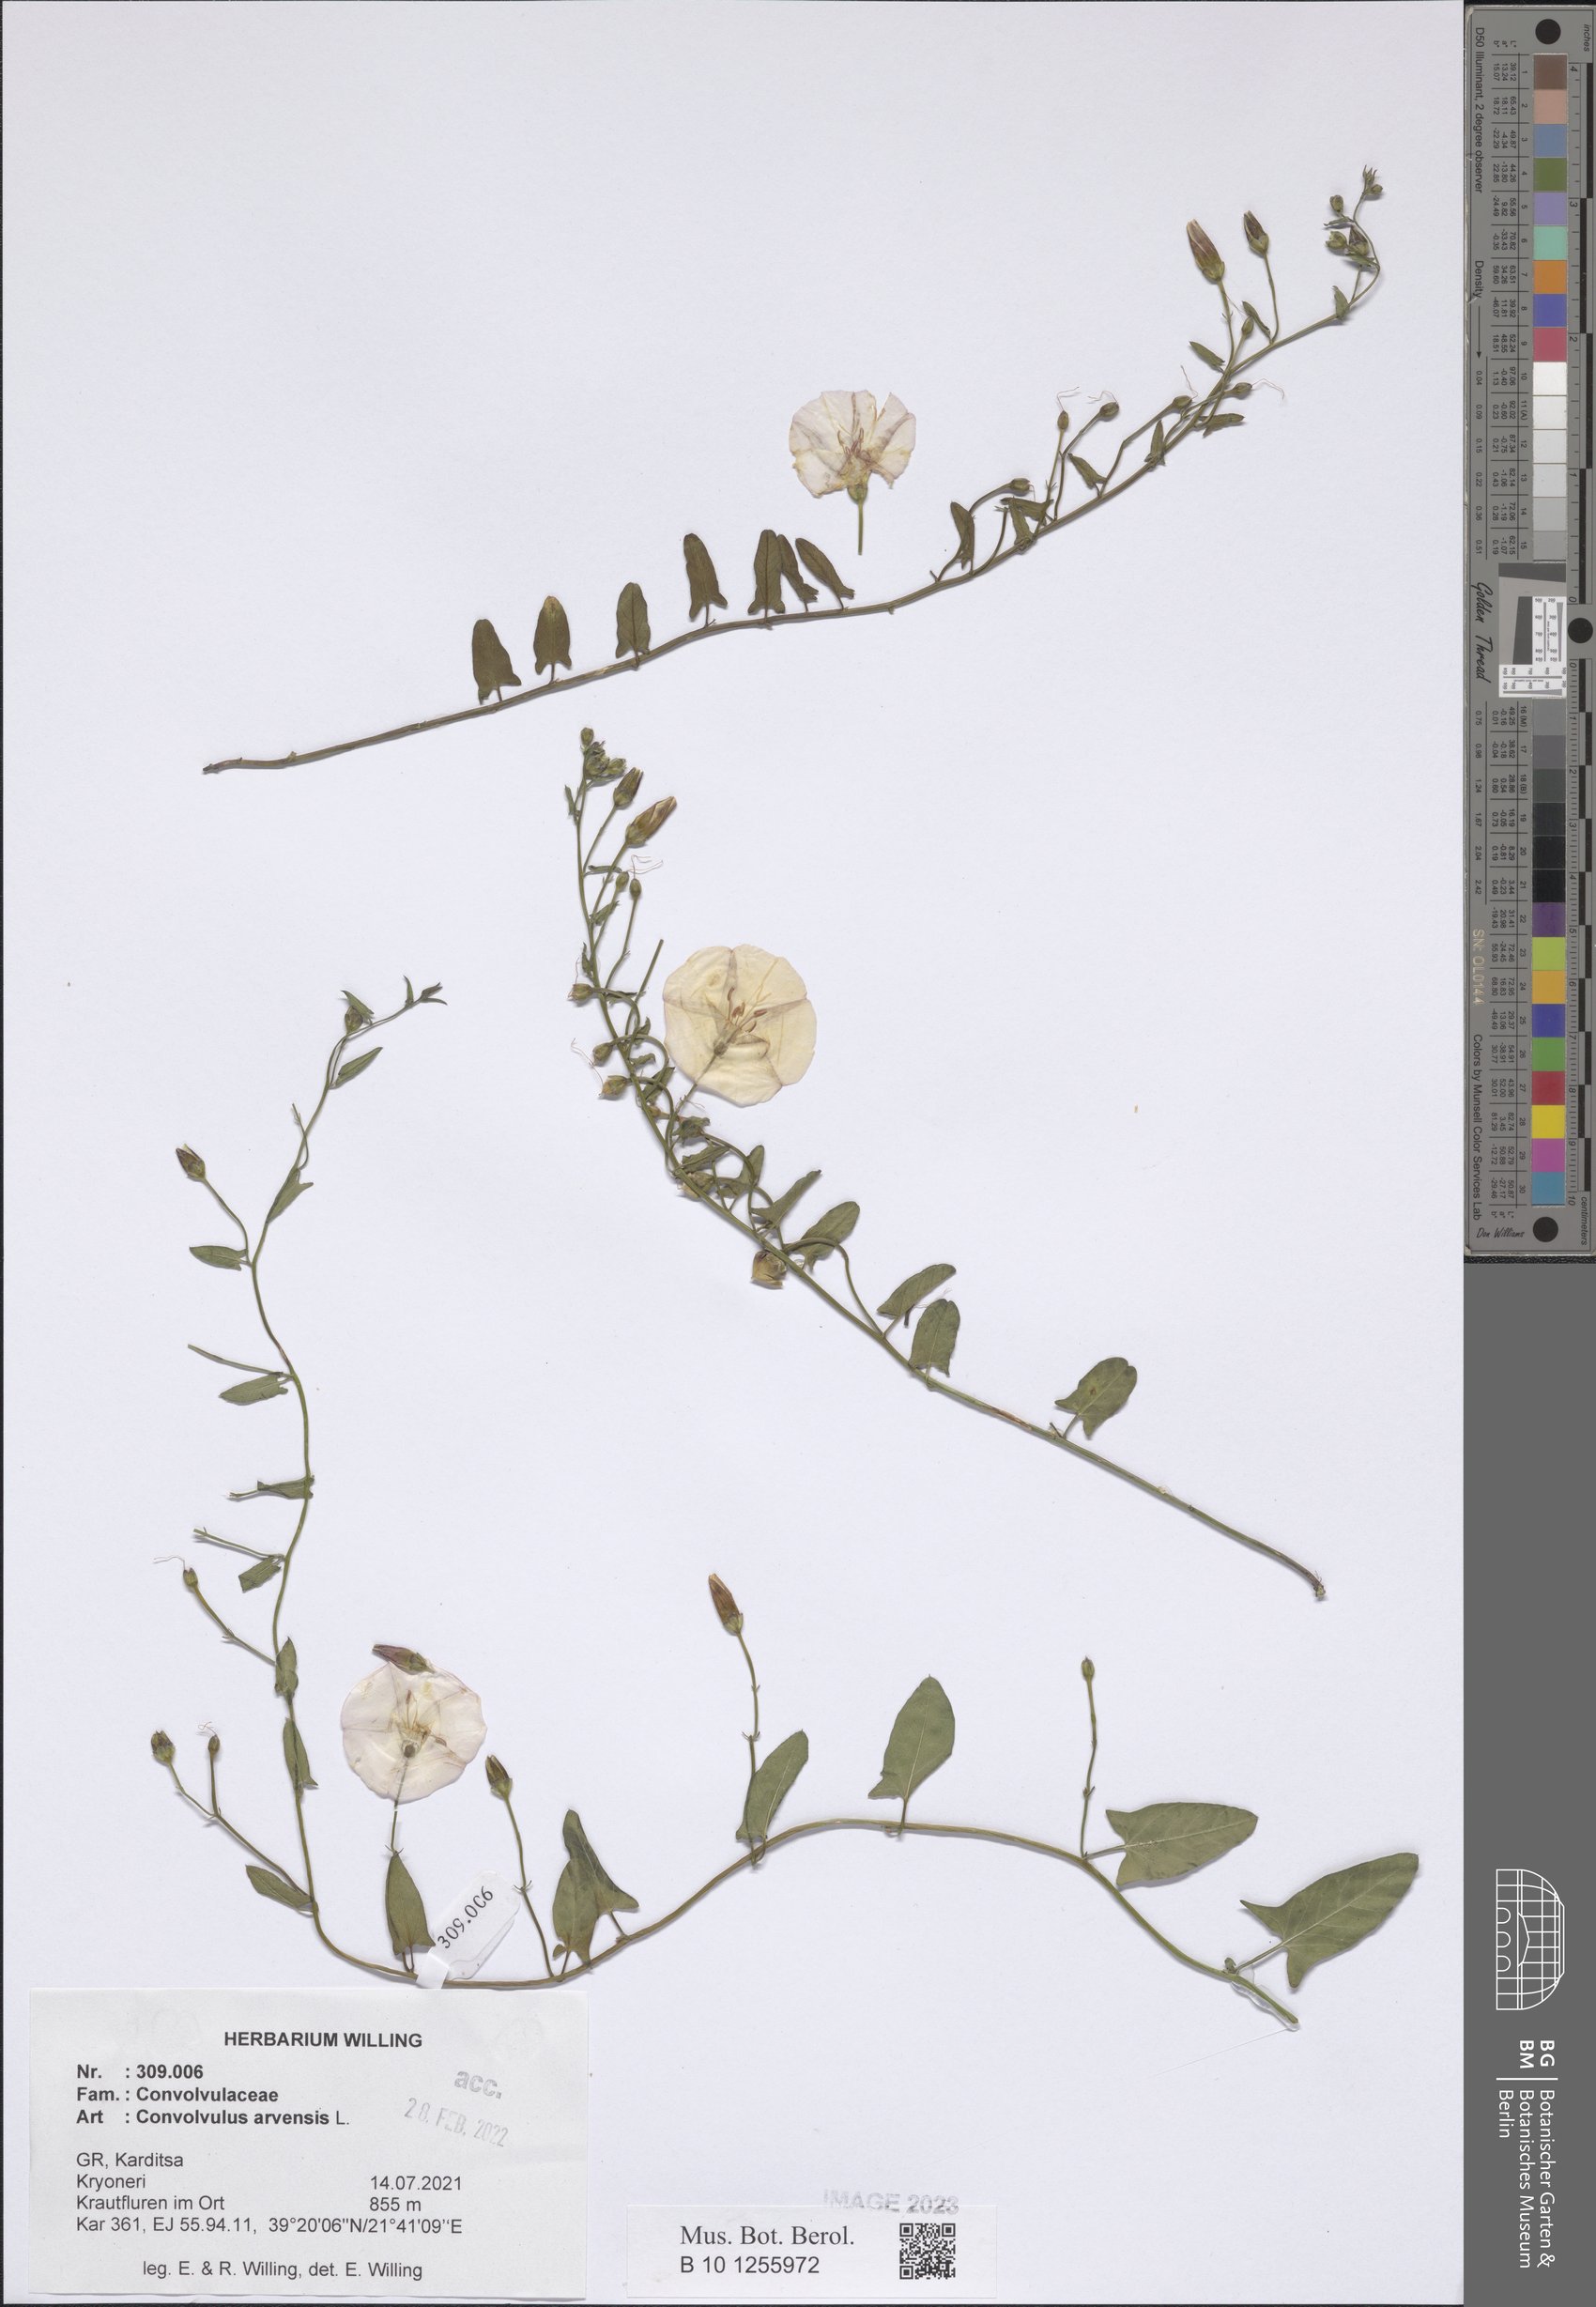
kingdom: Plantae
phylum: Tracheophyta
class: Magnoliopsida
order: Solanales
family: Convolvulaceae
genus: Convolvulus
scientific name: Convolvulus arvensis
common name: Field bindweed
